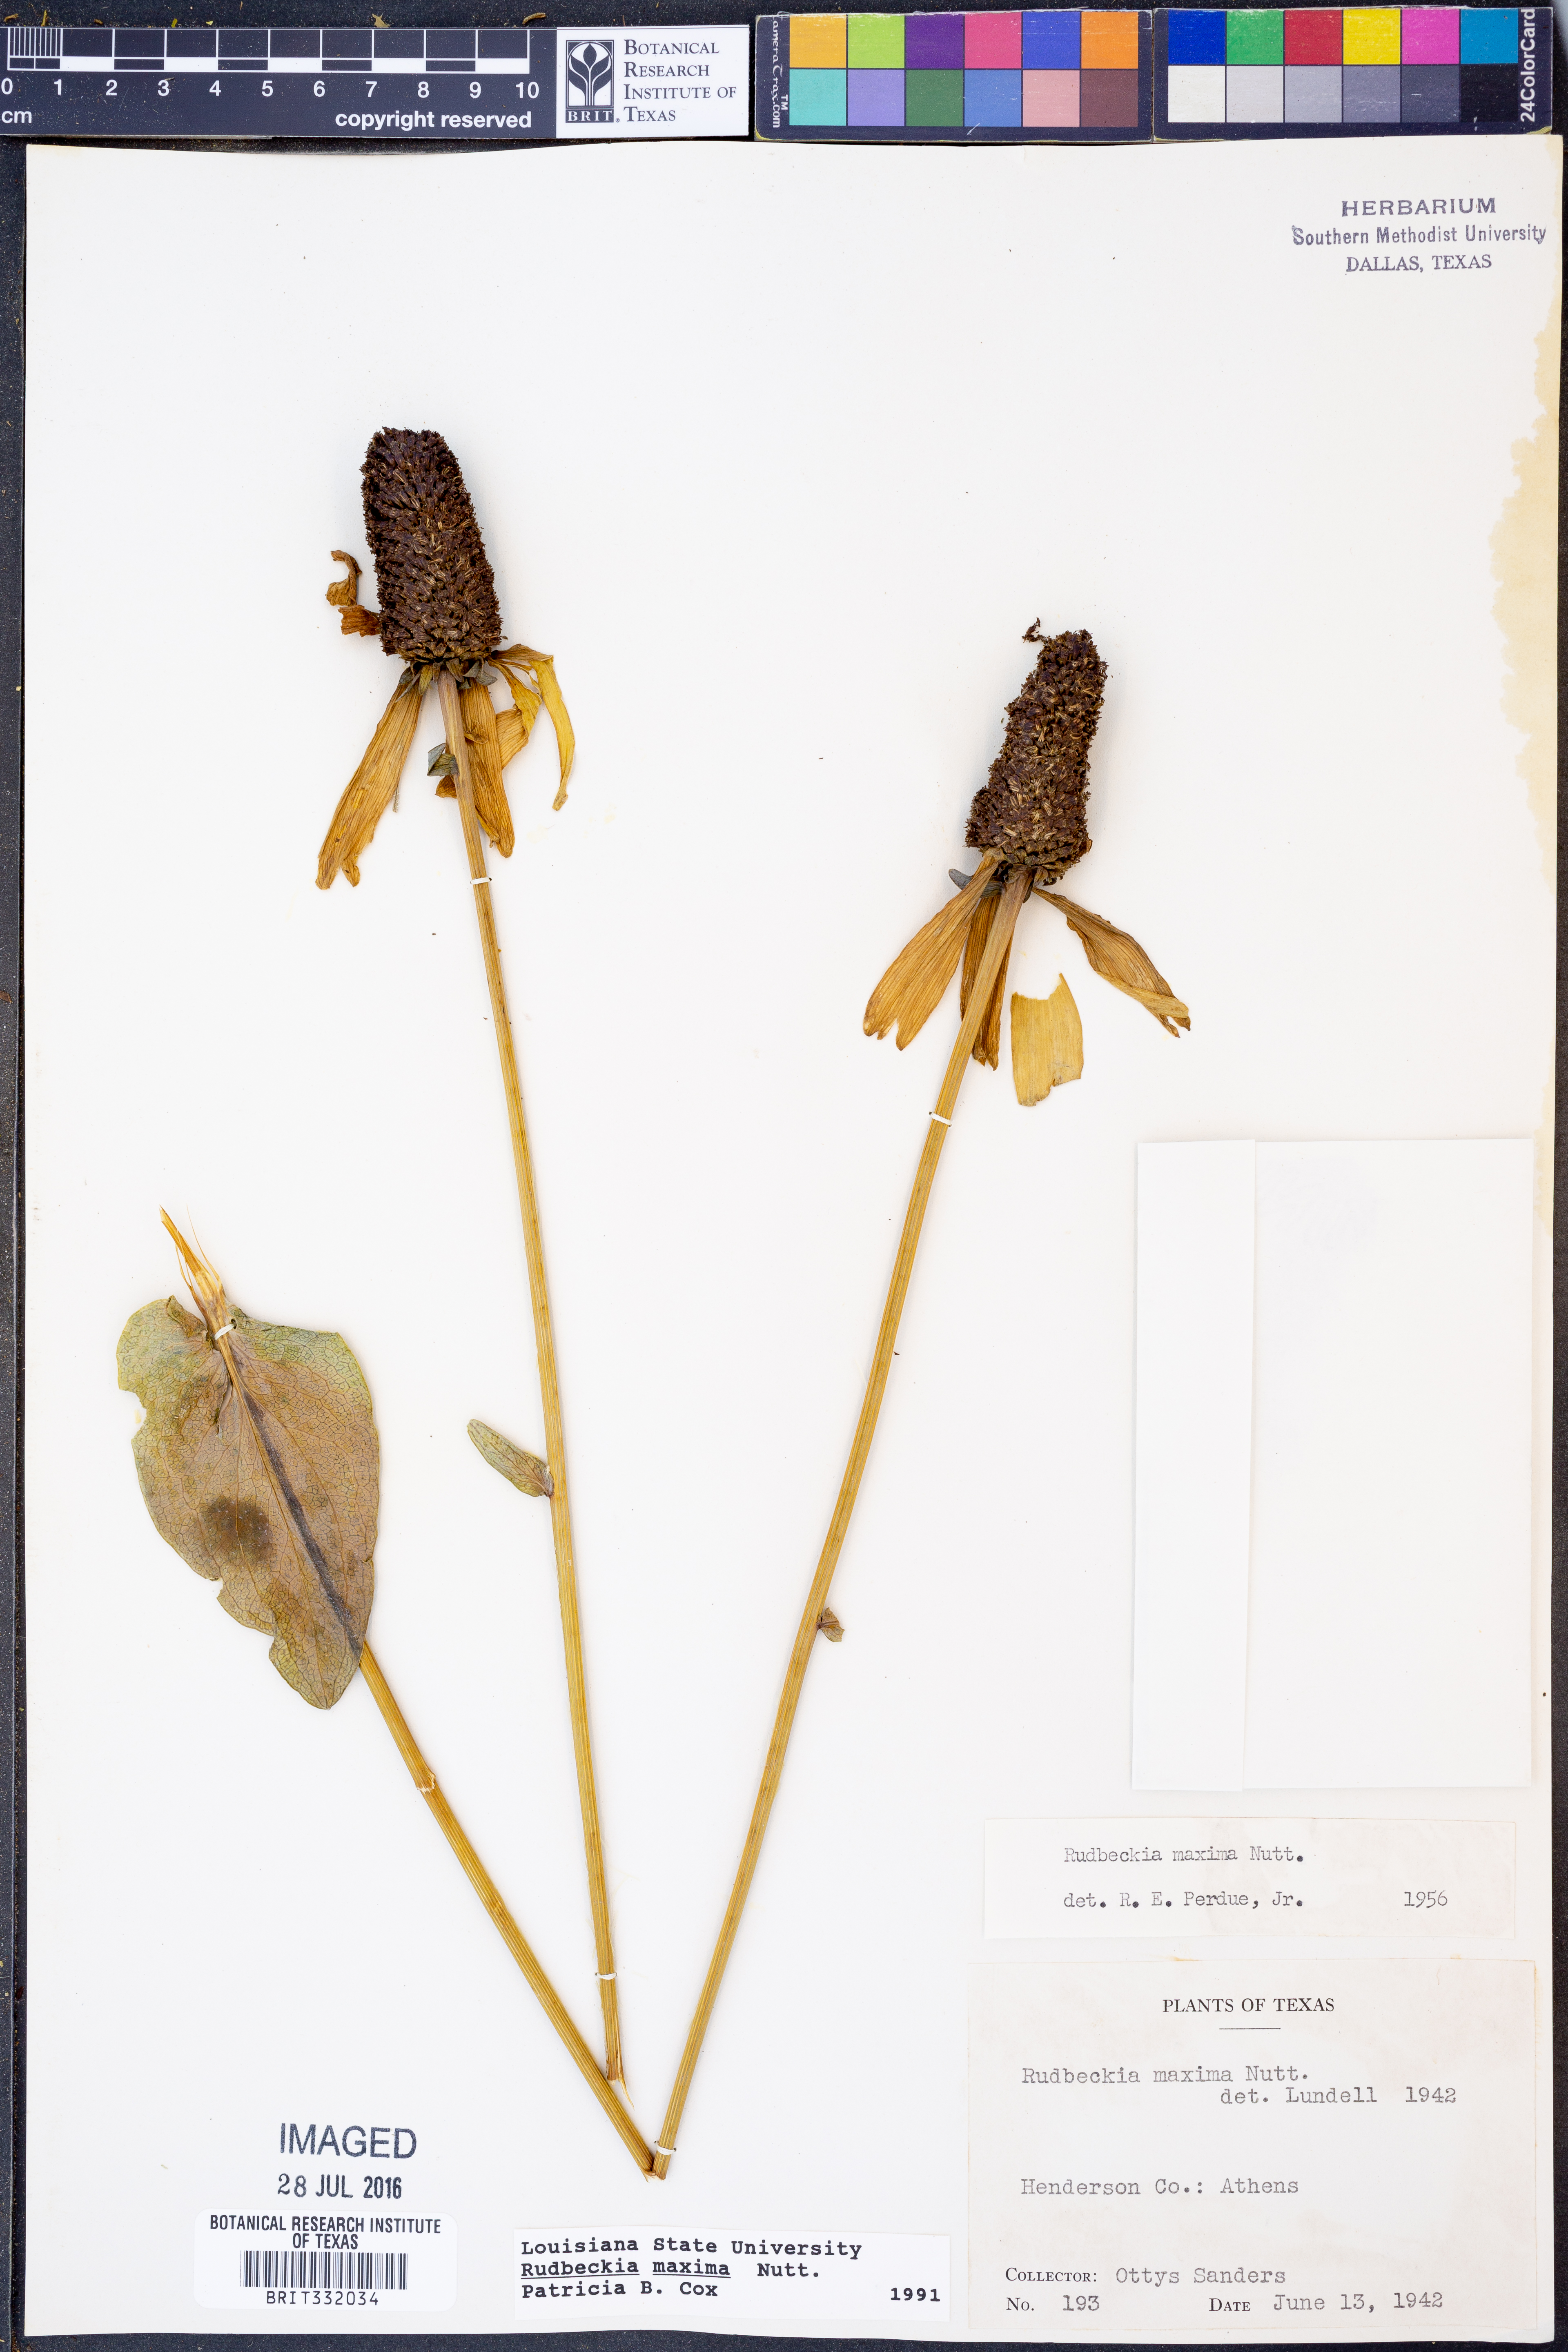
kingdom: Plantae
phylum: Tracheophyta
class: Magnoliopsida
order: Asterales
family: Asteraceae
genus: Rudbeckia
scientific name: Rudbeckia maxima
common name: Cabbage coneflower
